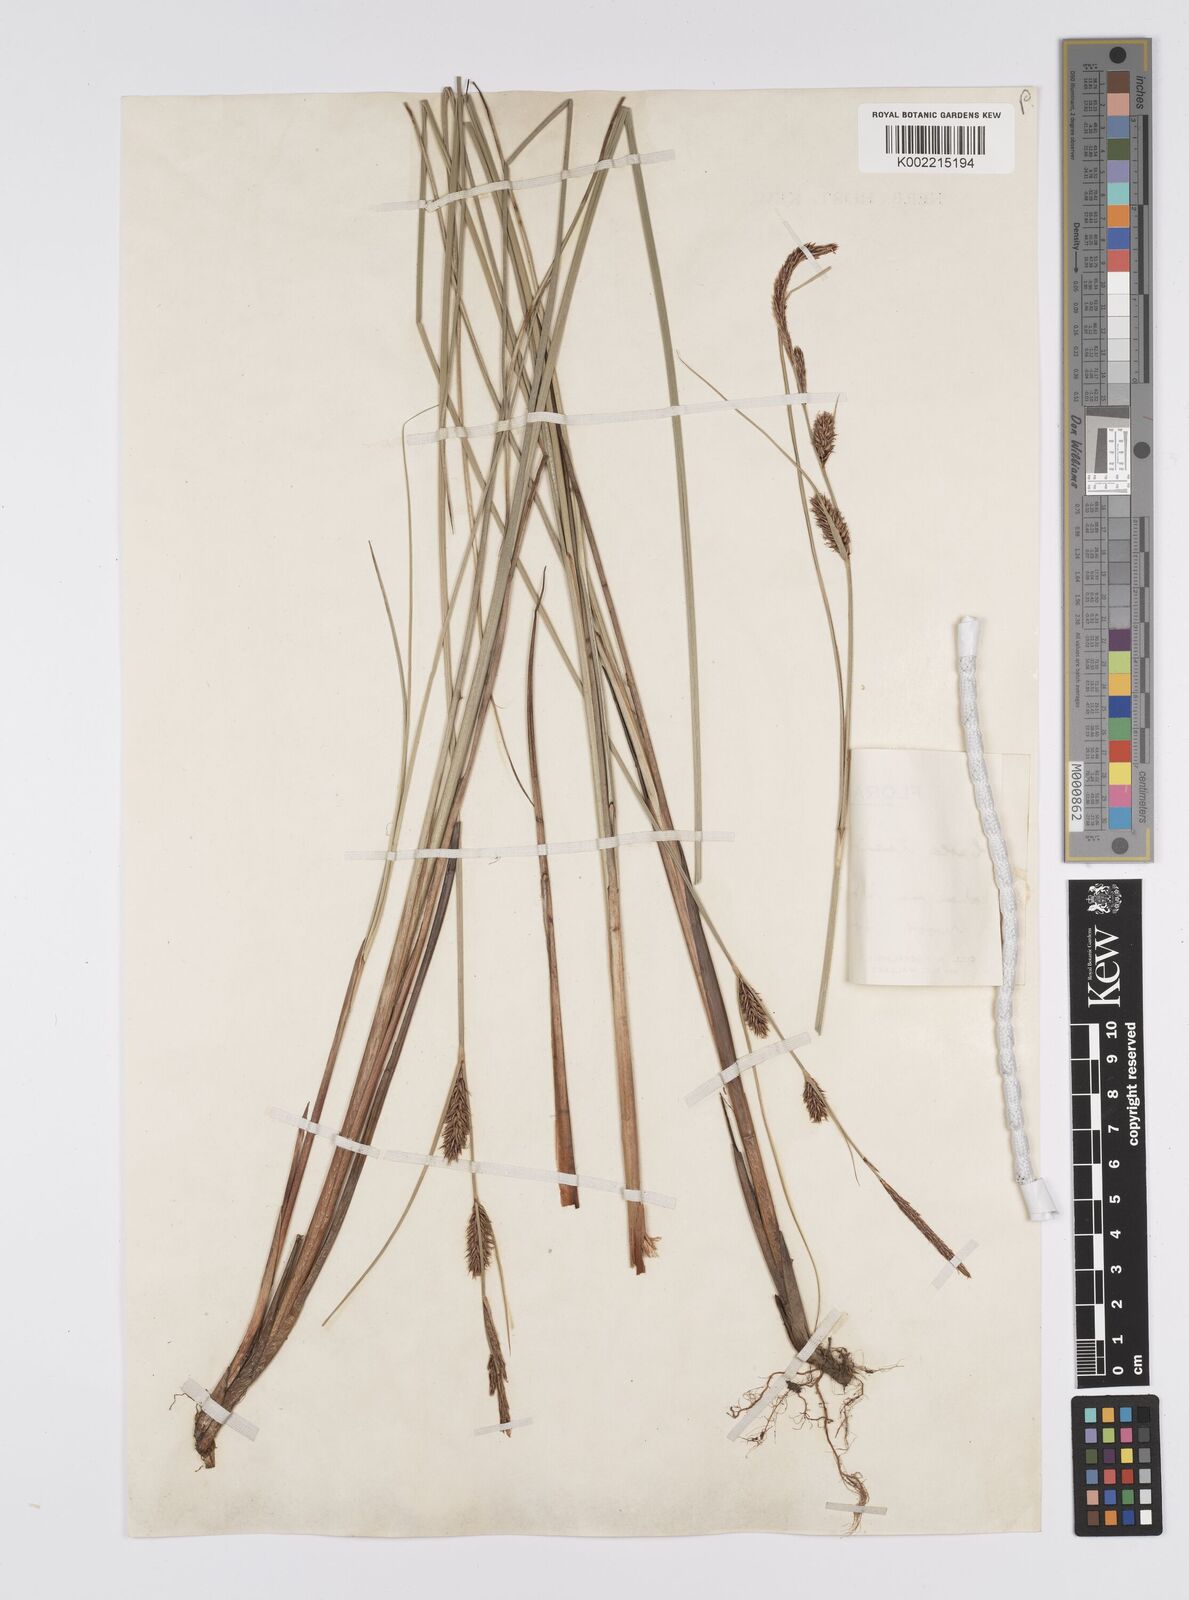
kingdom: Plantae
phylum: Tracheophyta
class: Liliopsida
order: Poales
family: Cyperaceae
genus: Carex
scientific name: Carex lasiocarpa
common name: Slender sedge
